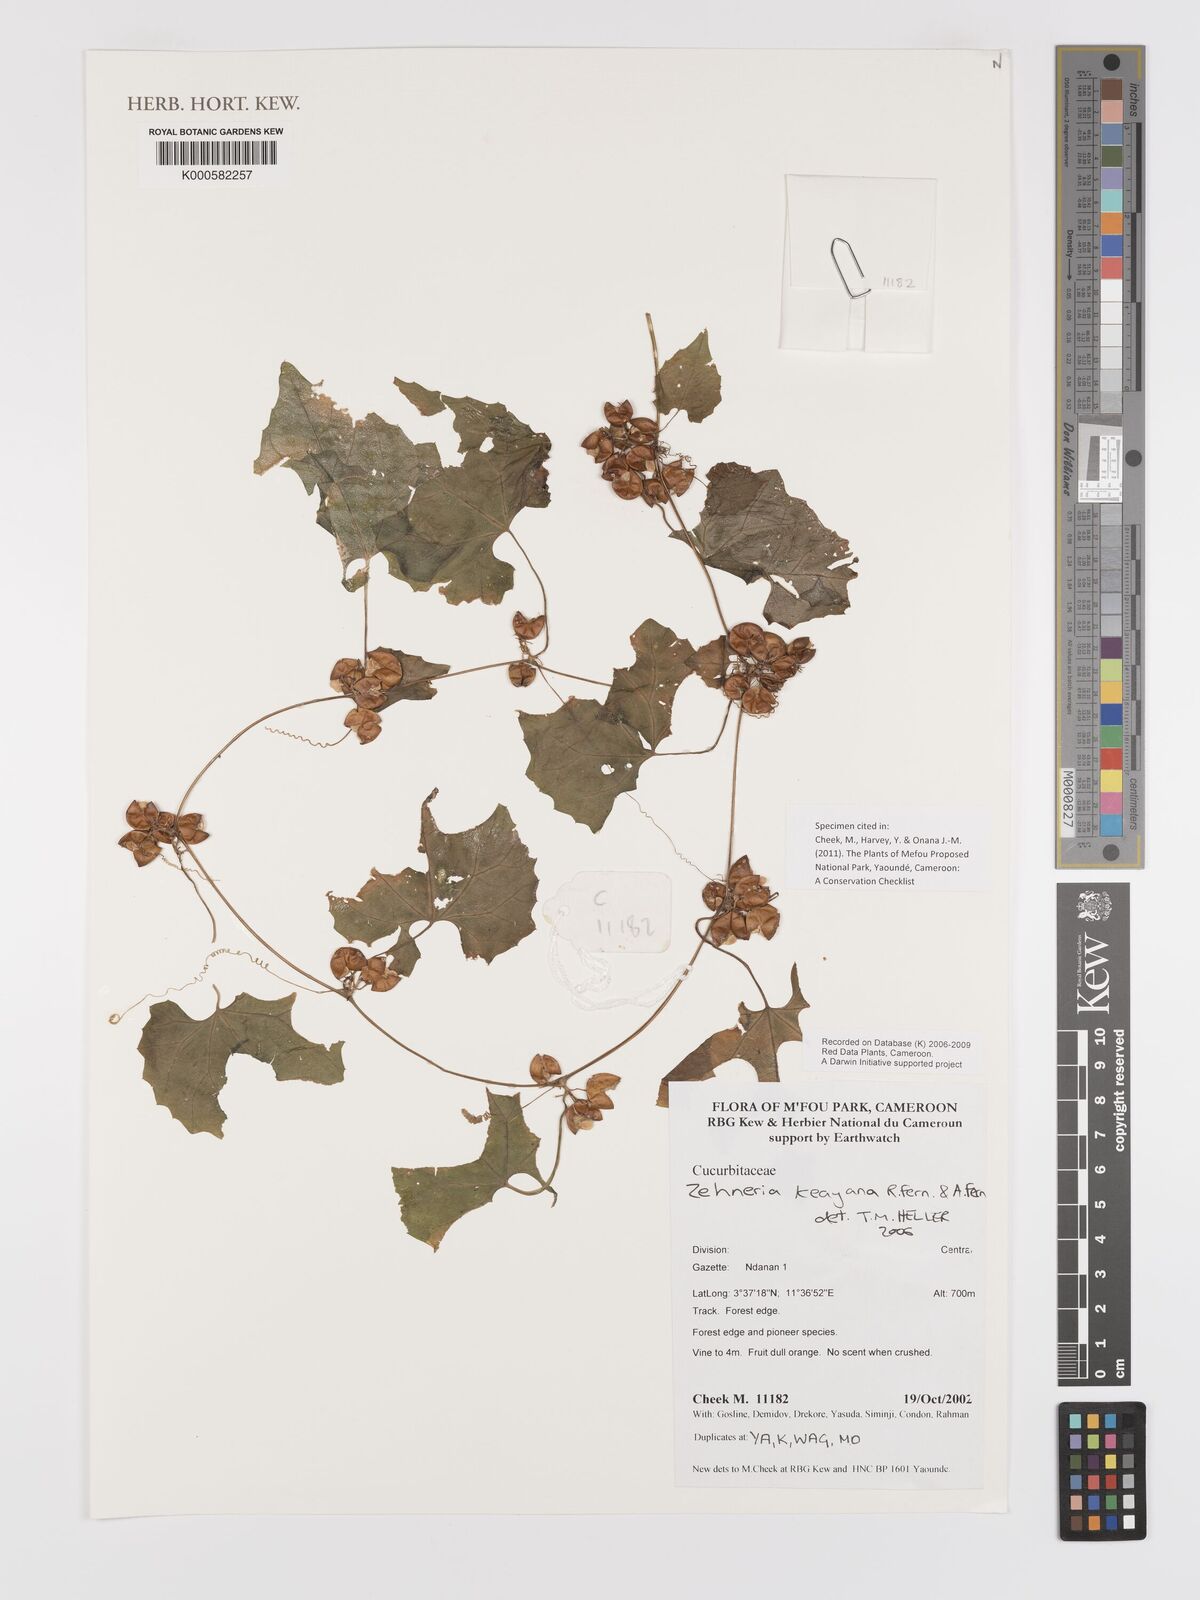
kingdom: Plantae
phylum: Tracheophyta
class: Magnoliopsida
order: Cucurbitales
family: Cucurbitaceae
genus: Zehneria
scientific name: Zehneria keayana
